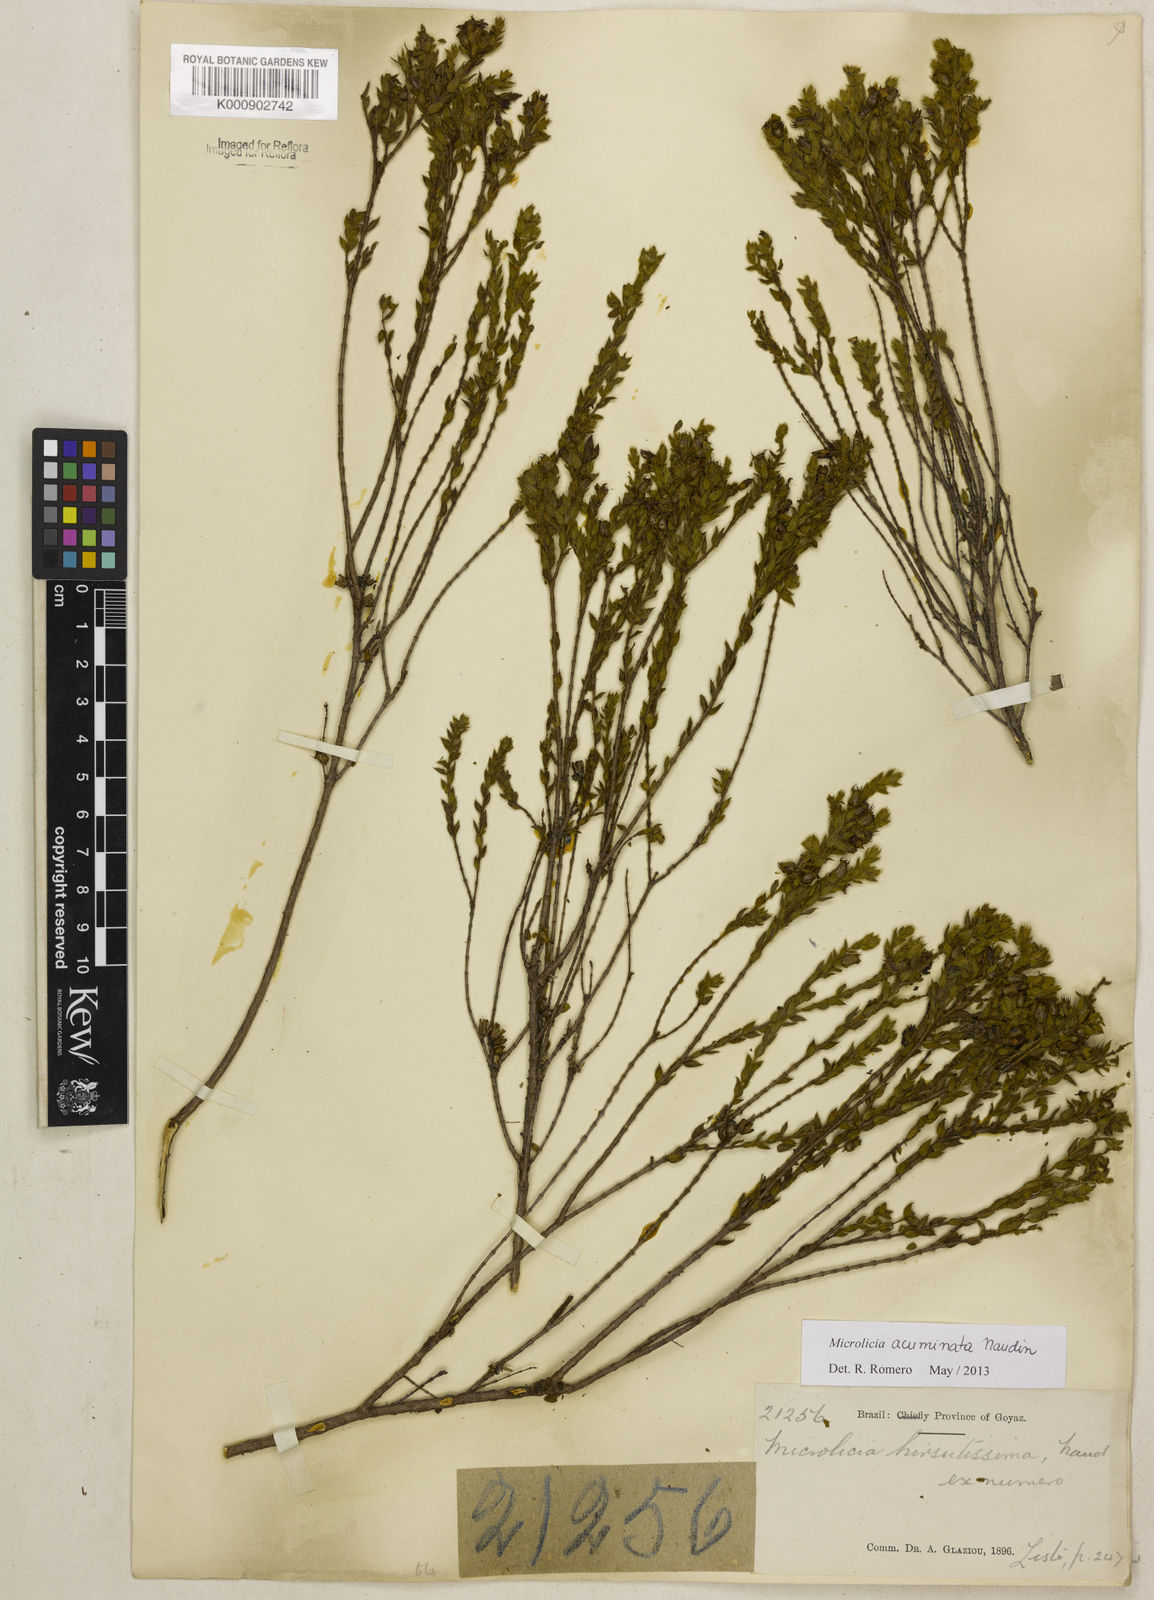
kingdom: Plantae
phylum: Tracheophyta
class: Magnoliopsida
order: Myrtales
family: Melastomataceae
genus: Microlicia
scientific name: Microlicia
